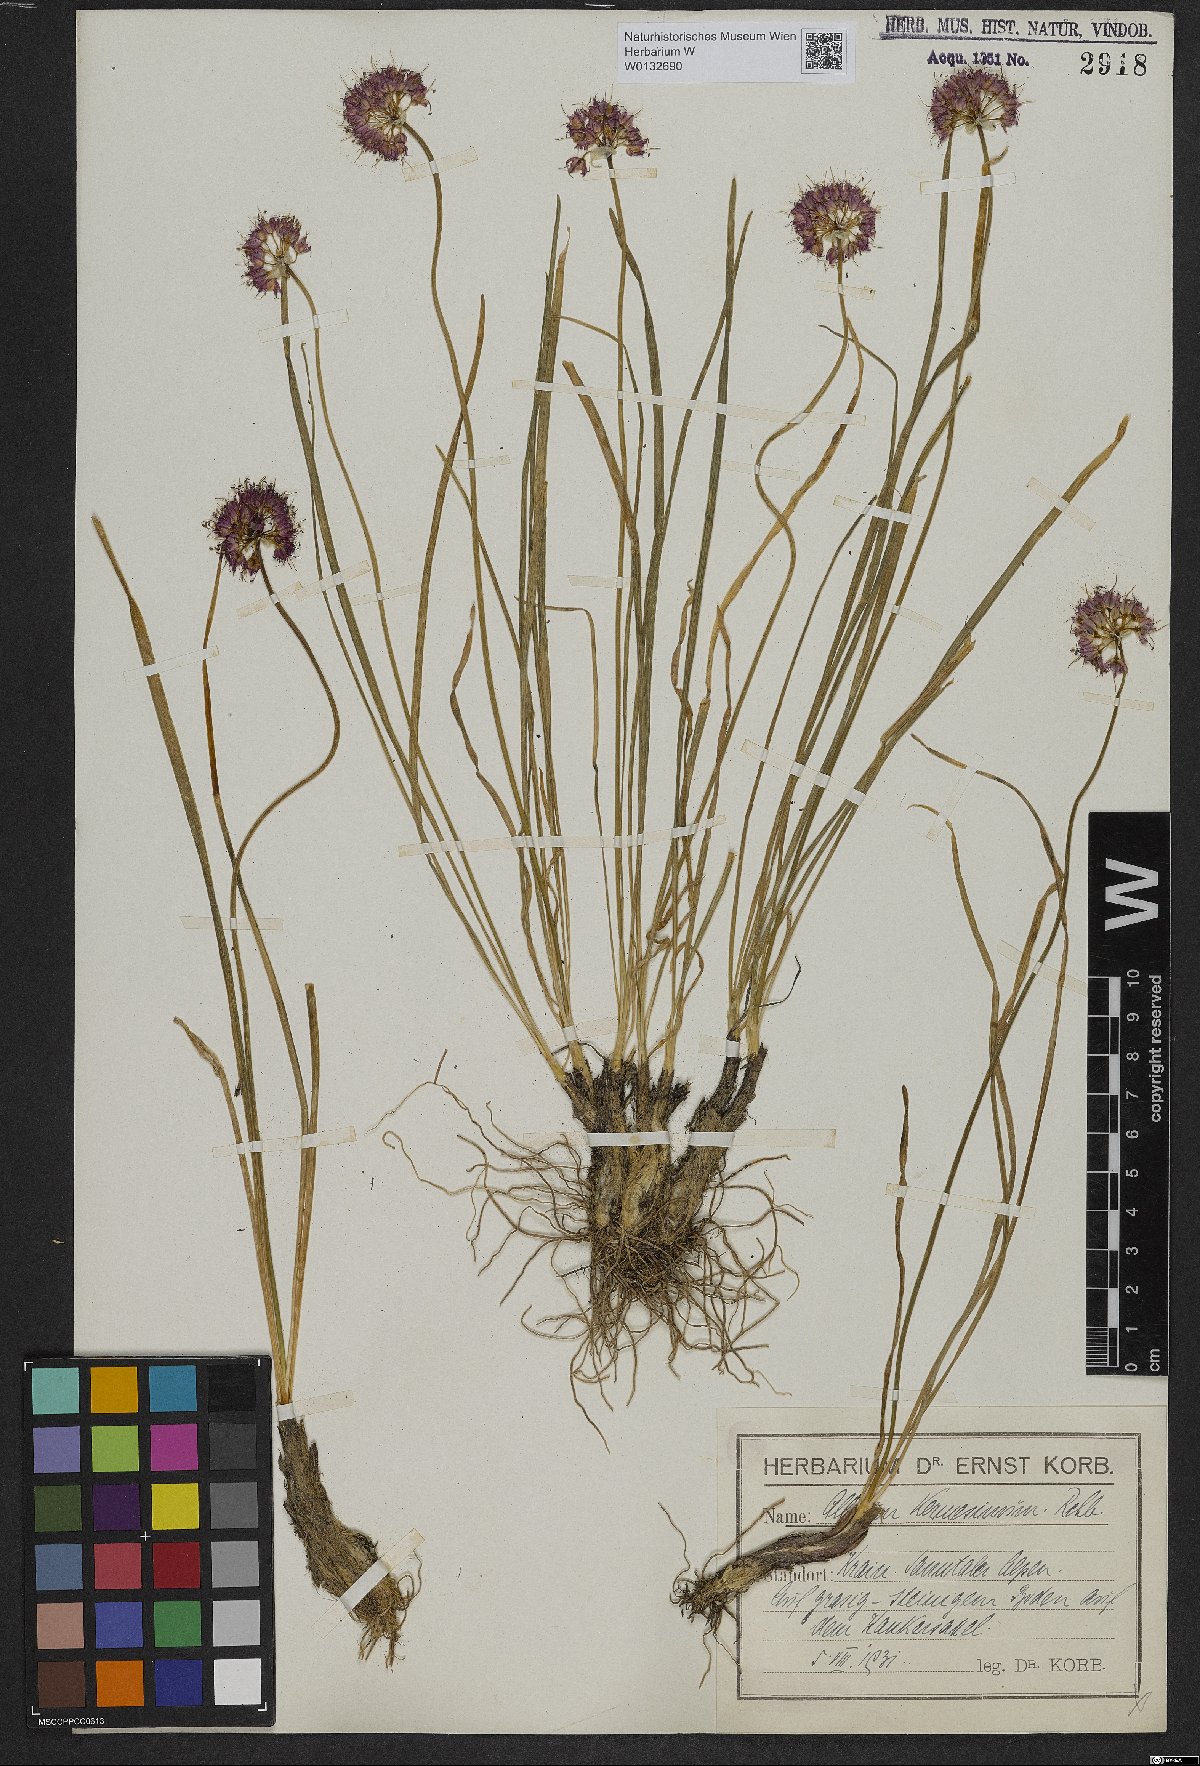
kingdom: Plantae
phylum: Tracheophyta
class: Liliopsida
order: Asparagales
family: Amaryllidaceae
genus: Allium
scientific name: Allium kermesinum
